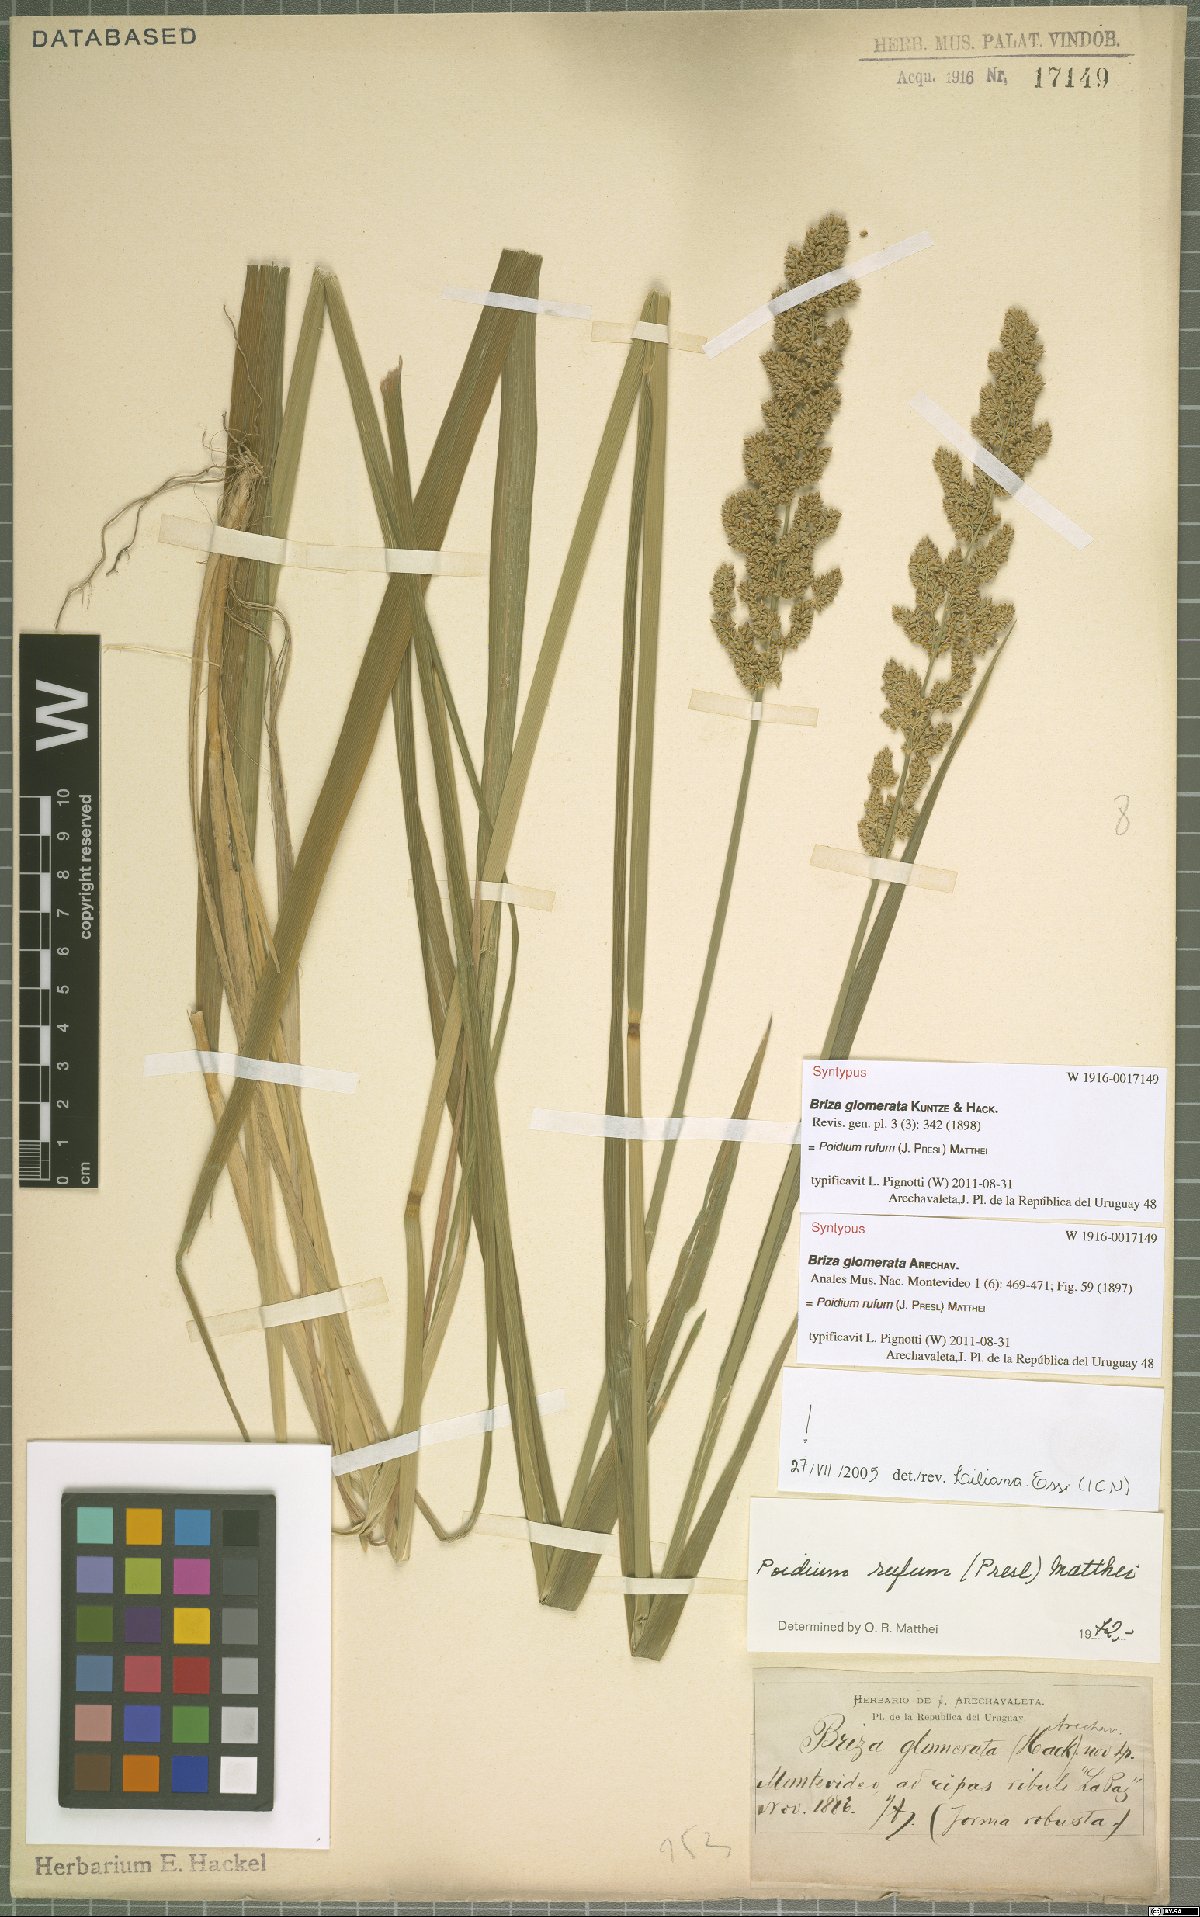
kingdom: Plantae
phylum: Tracheophyta
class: Liliopsida
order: Poales
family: Poaceae
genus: Lombardochloa
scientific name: Lombardochloa rufa
